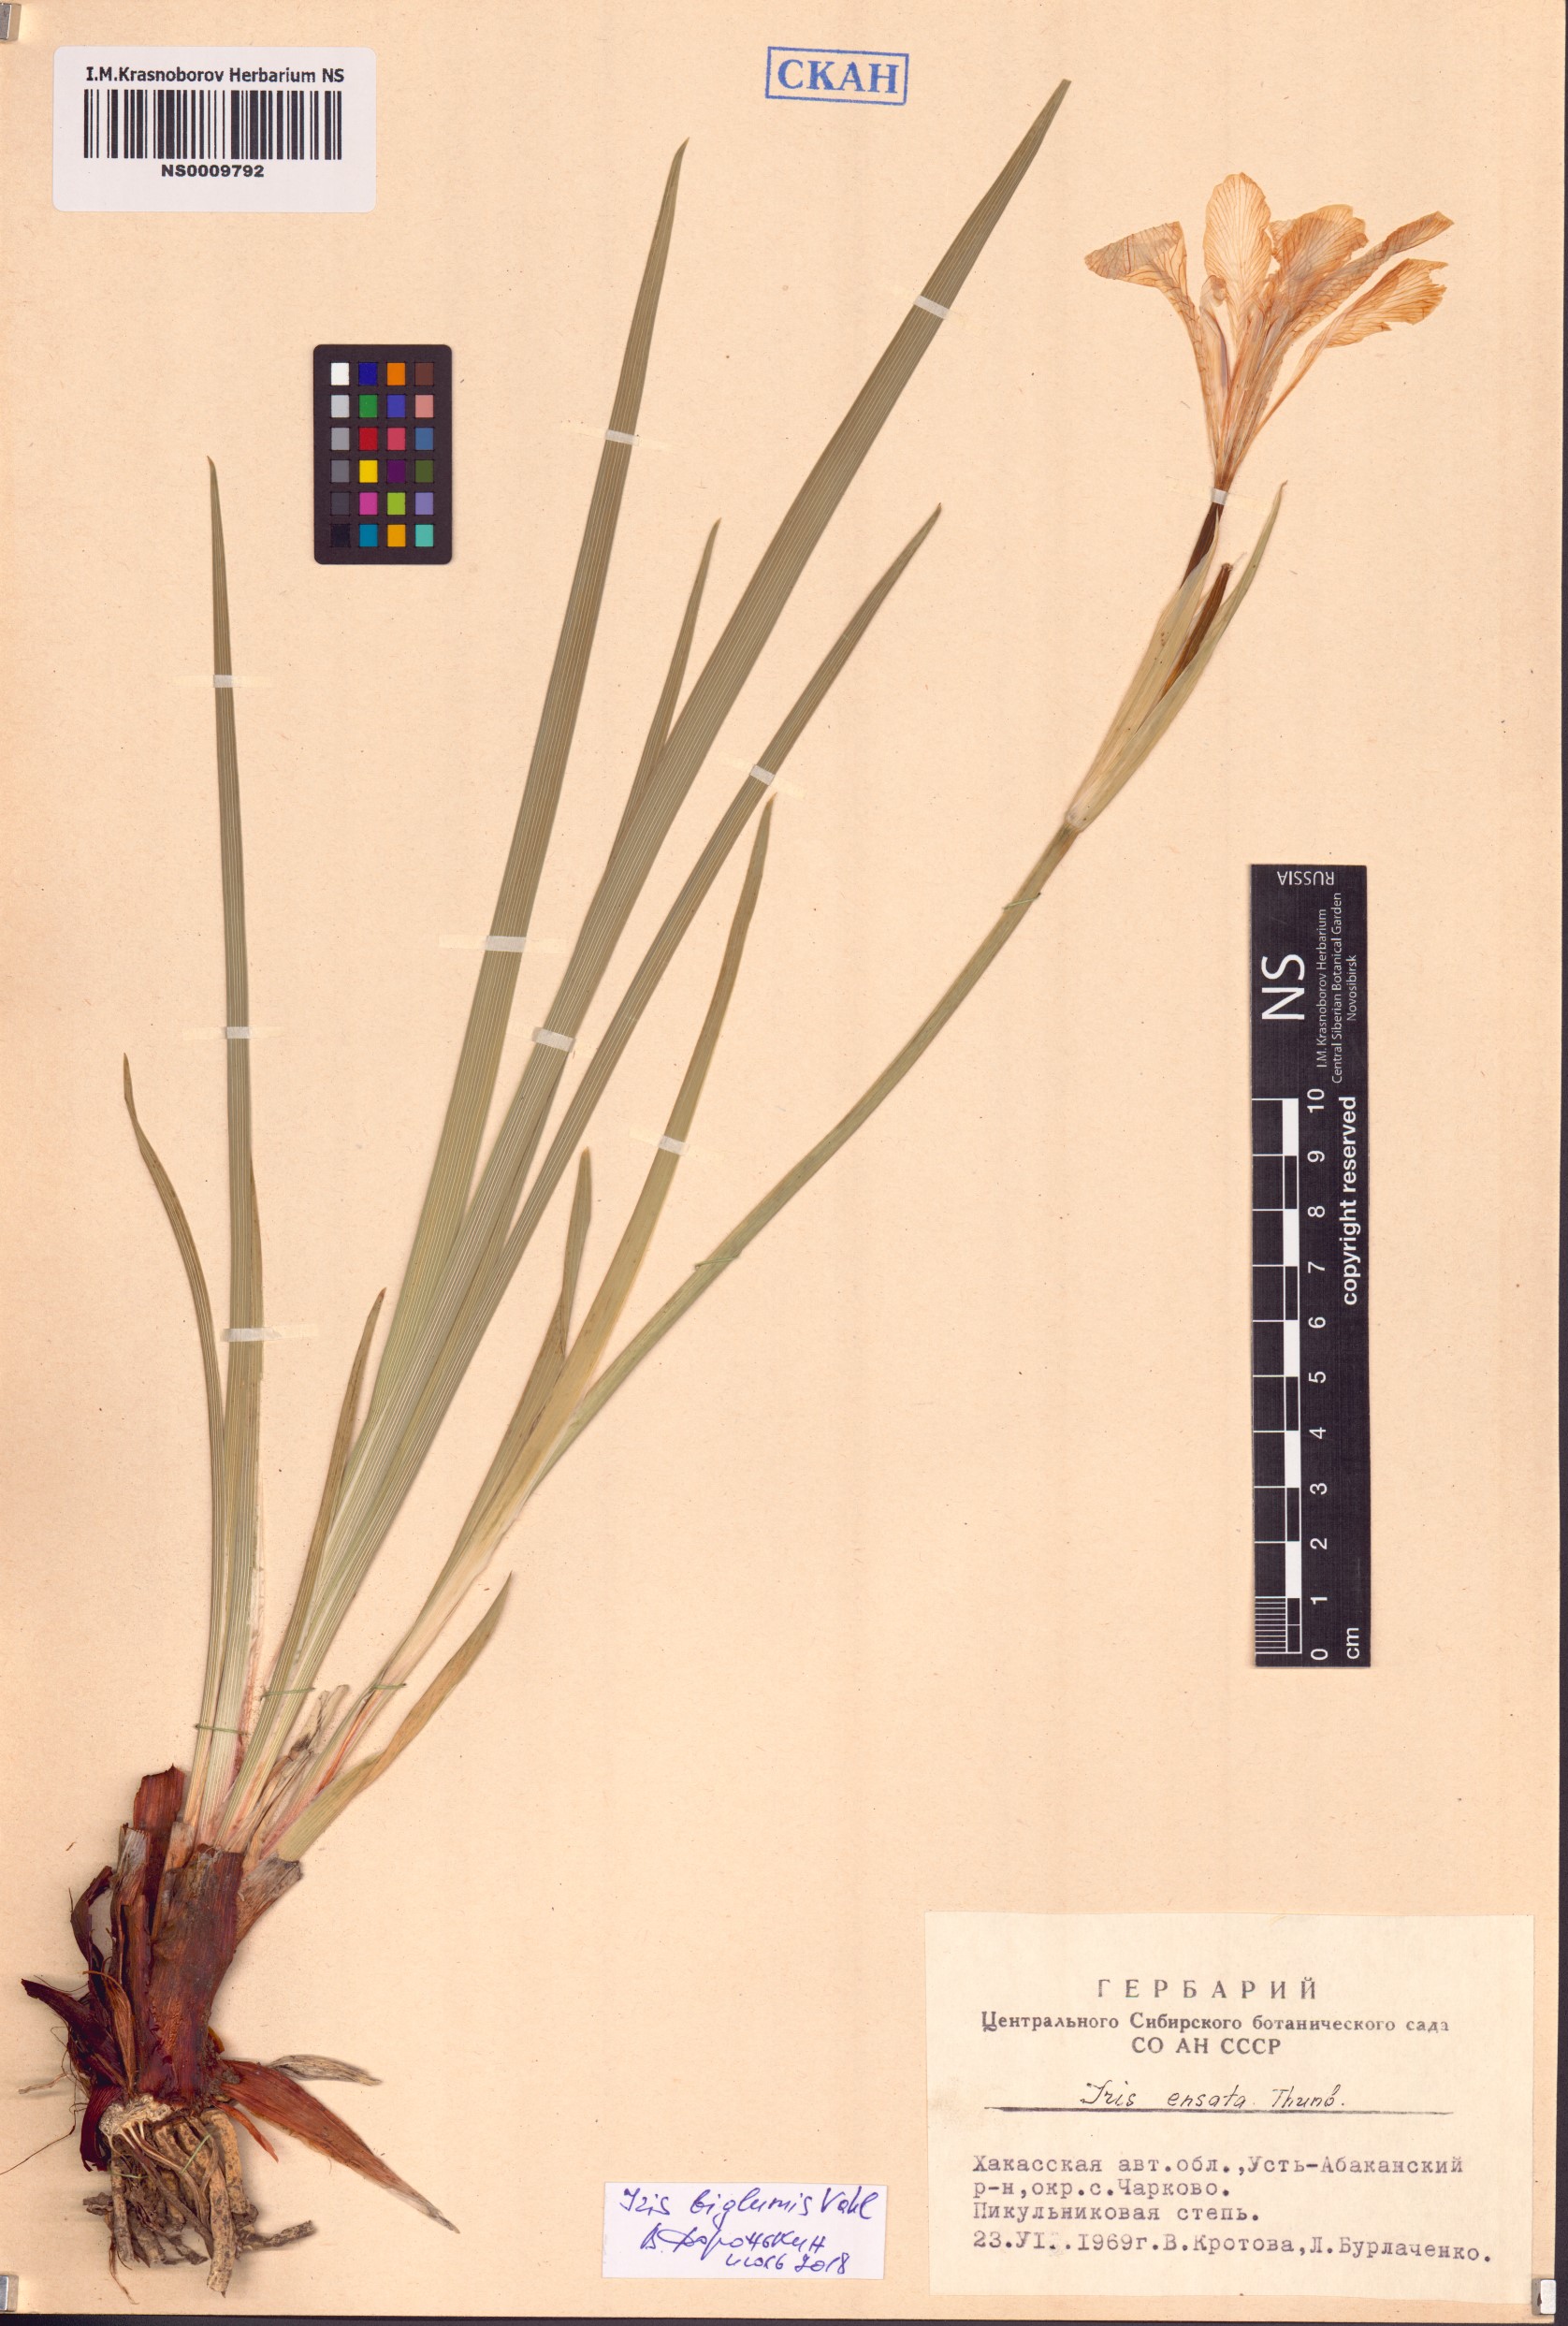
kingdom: Plantae
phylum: Tracheophyta
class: Liliopsida
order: Asparagales
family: Iridaceae
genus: Iris
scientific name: Iris lactea
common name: White-flower chinese iris
